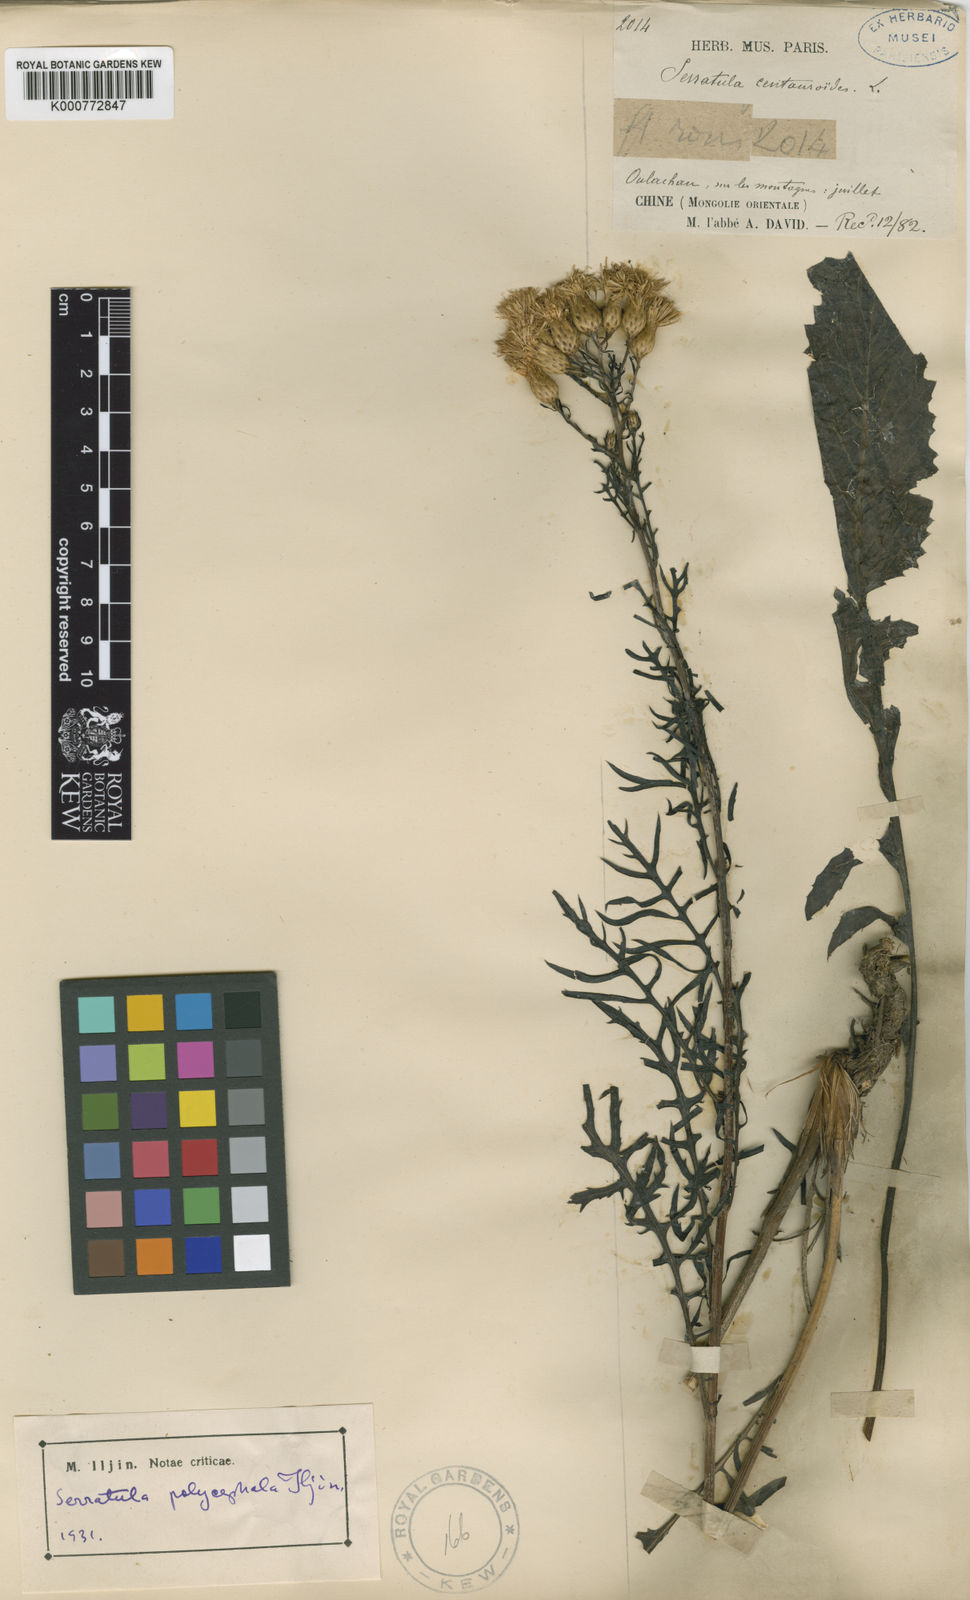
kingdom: Plantae
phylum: Tracheophyta
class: Magnoliopsida
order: Asterales
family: Asteraceae
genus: Klasea
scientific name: Klasea centauroides
